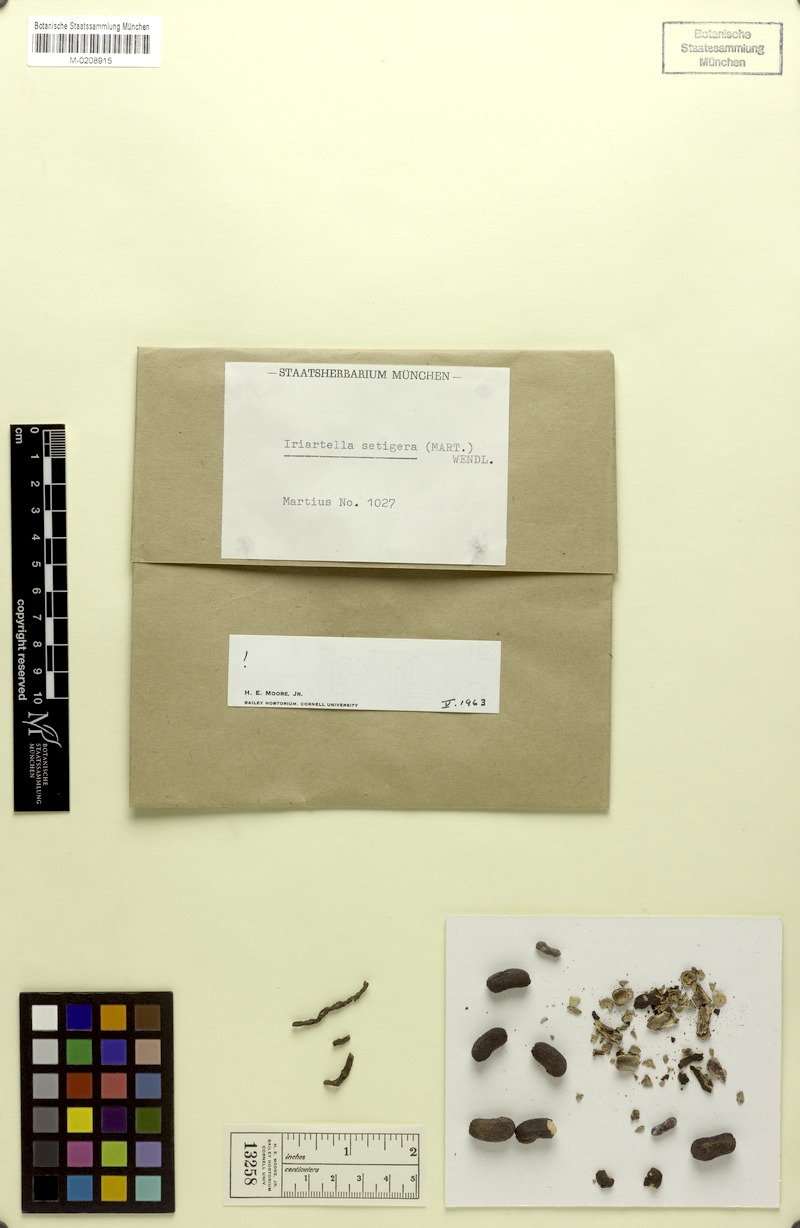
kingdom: Plantae
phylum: Tracheophyta
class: Liliopsida
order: Arecales
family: Arecaceae
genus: Iriartella
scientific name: Iriartella setigera
